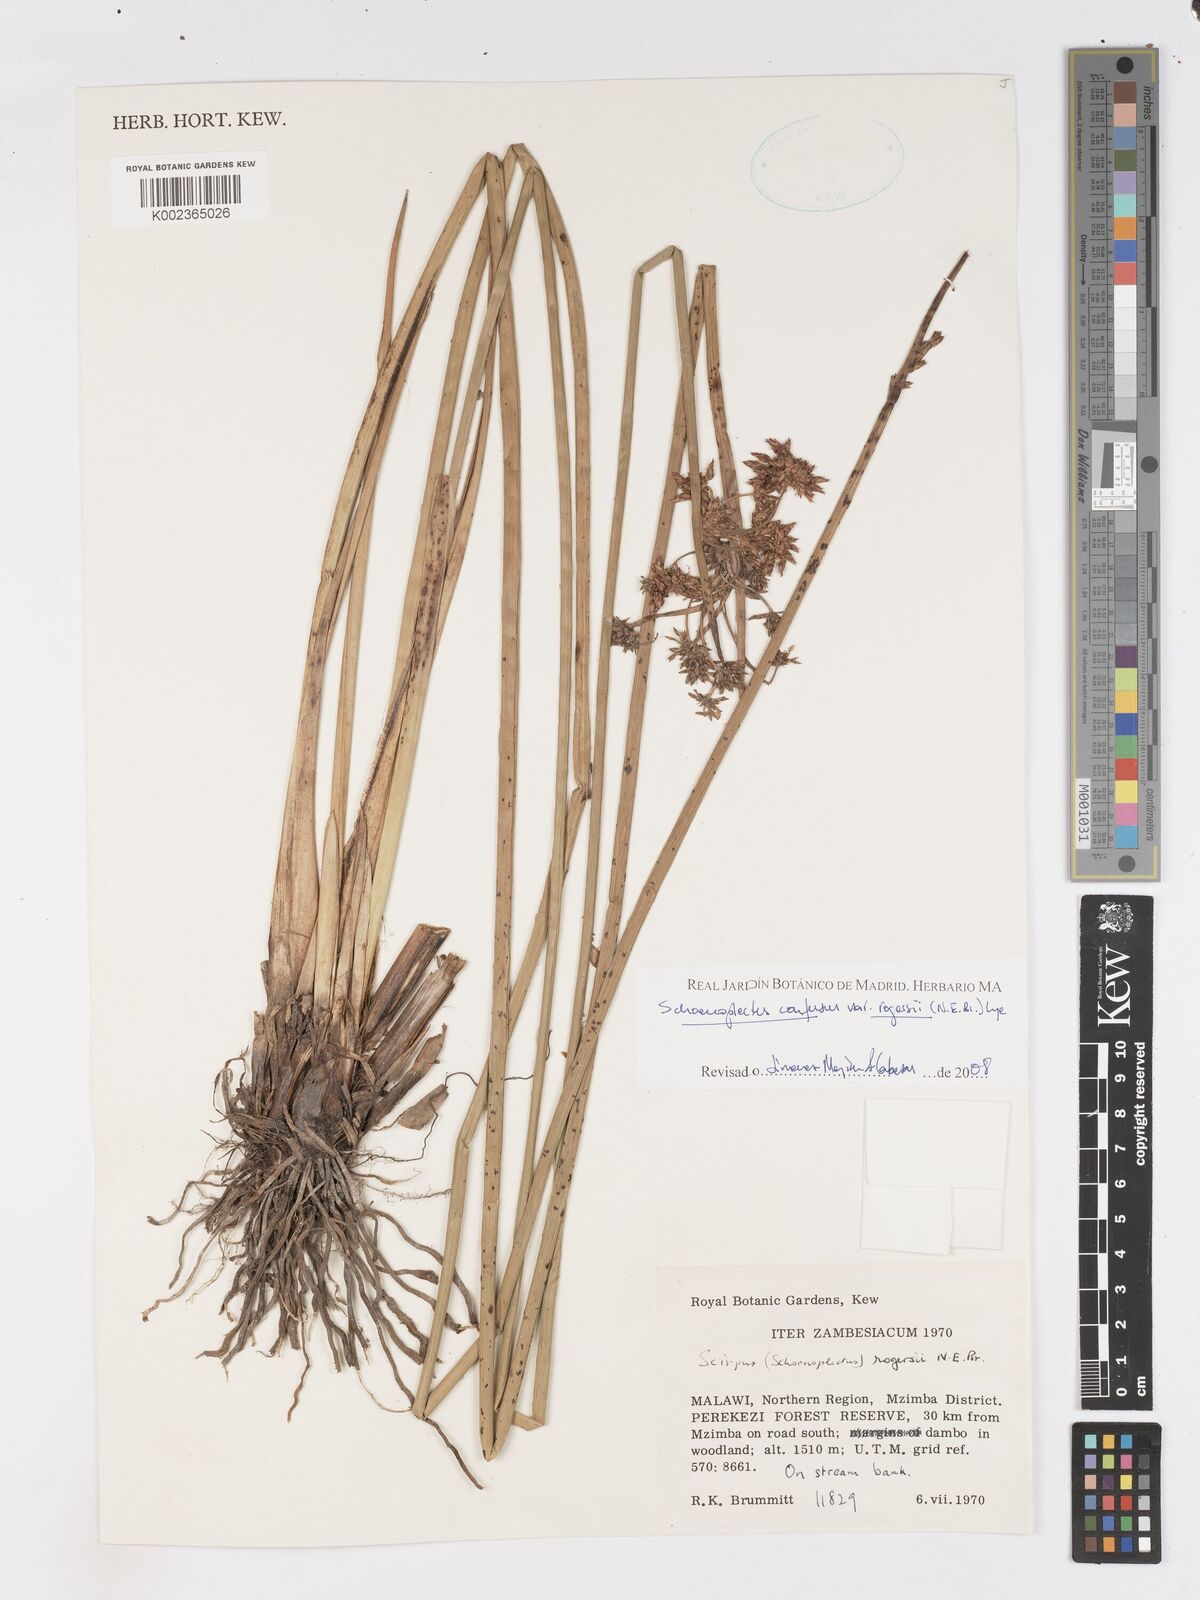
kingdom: Plantae
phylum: Tracheophyta
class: Liliopsida
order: Poales
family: Cyperaceae
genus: Schoenoplectiella
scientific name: Schoenoplectiella rogersii
